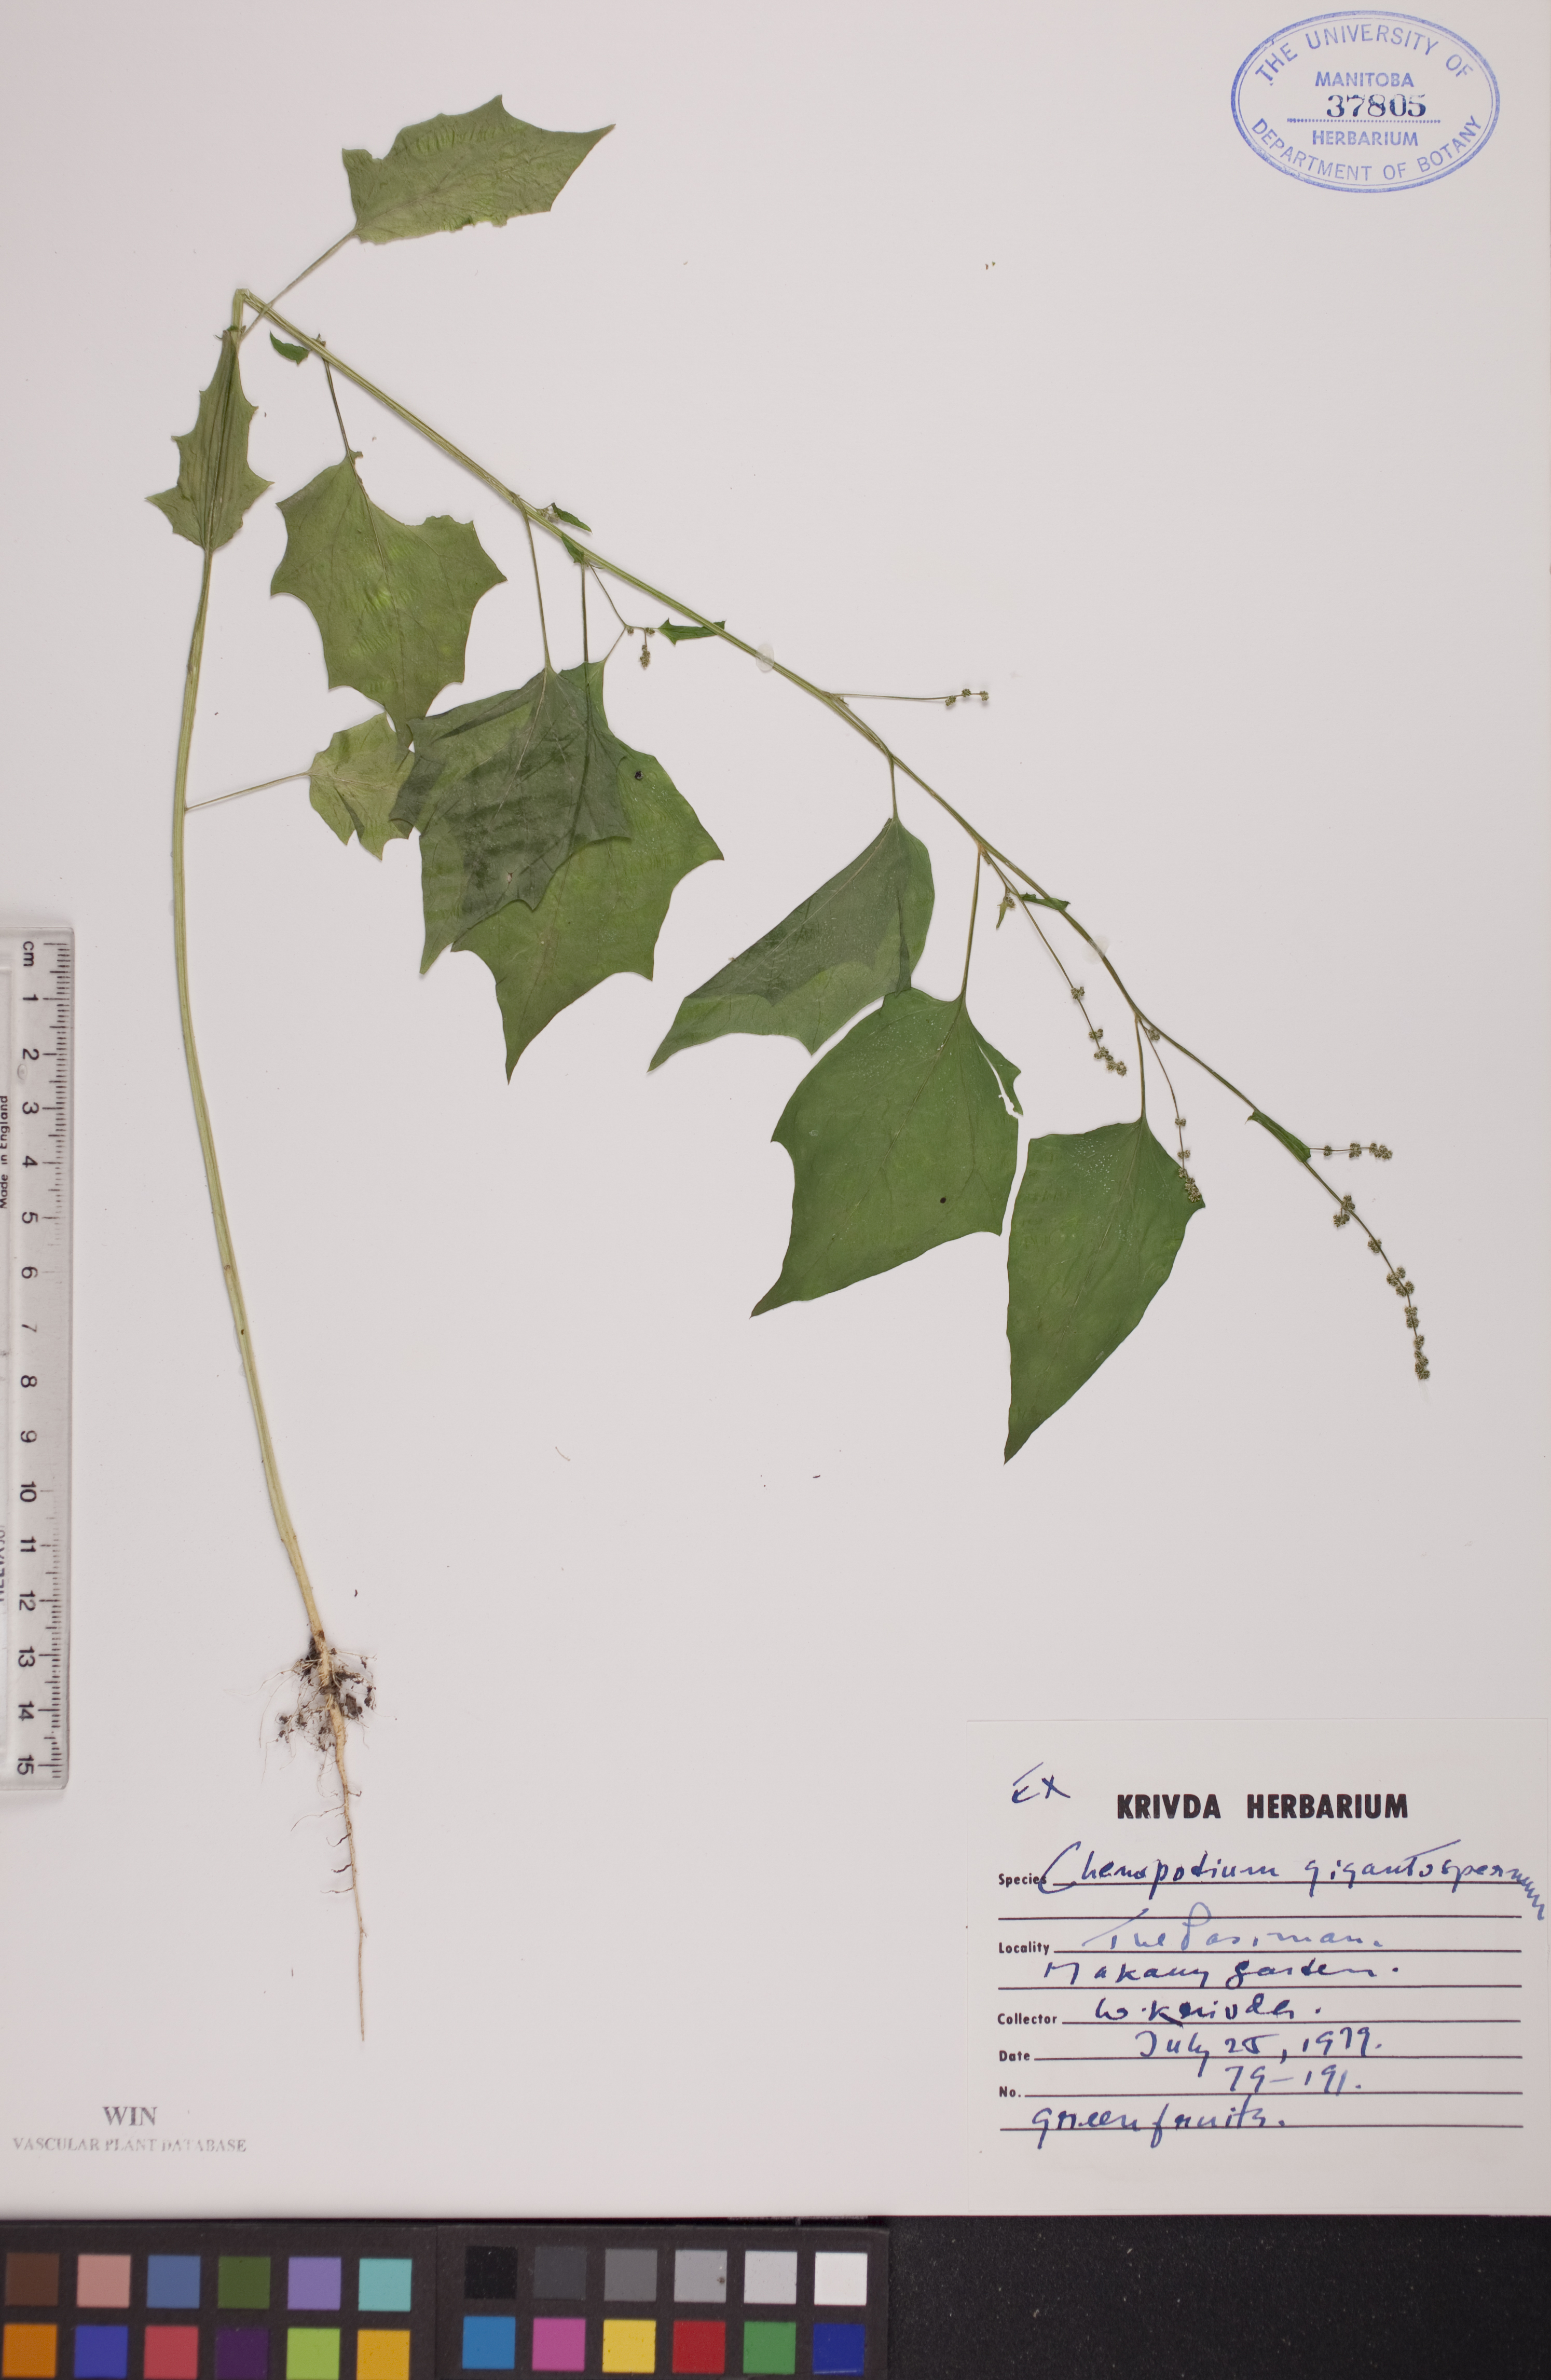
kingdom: Plantae
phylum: Tracheophyta
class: Magnoliopsida
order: Caryophyllales
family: Amaranthaceae
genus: Chenopodiastrum
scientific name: Chenopodiastrum simplex
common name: Large-seed goosefoot
